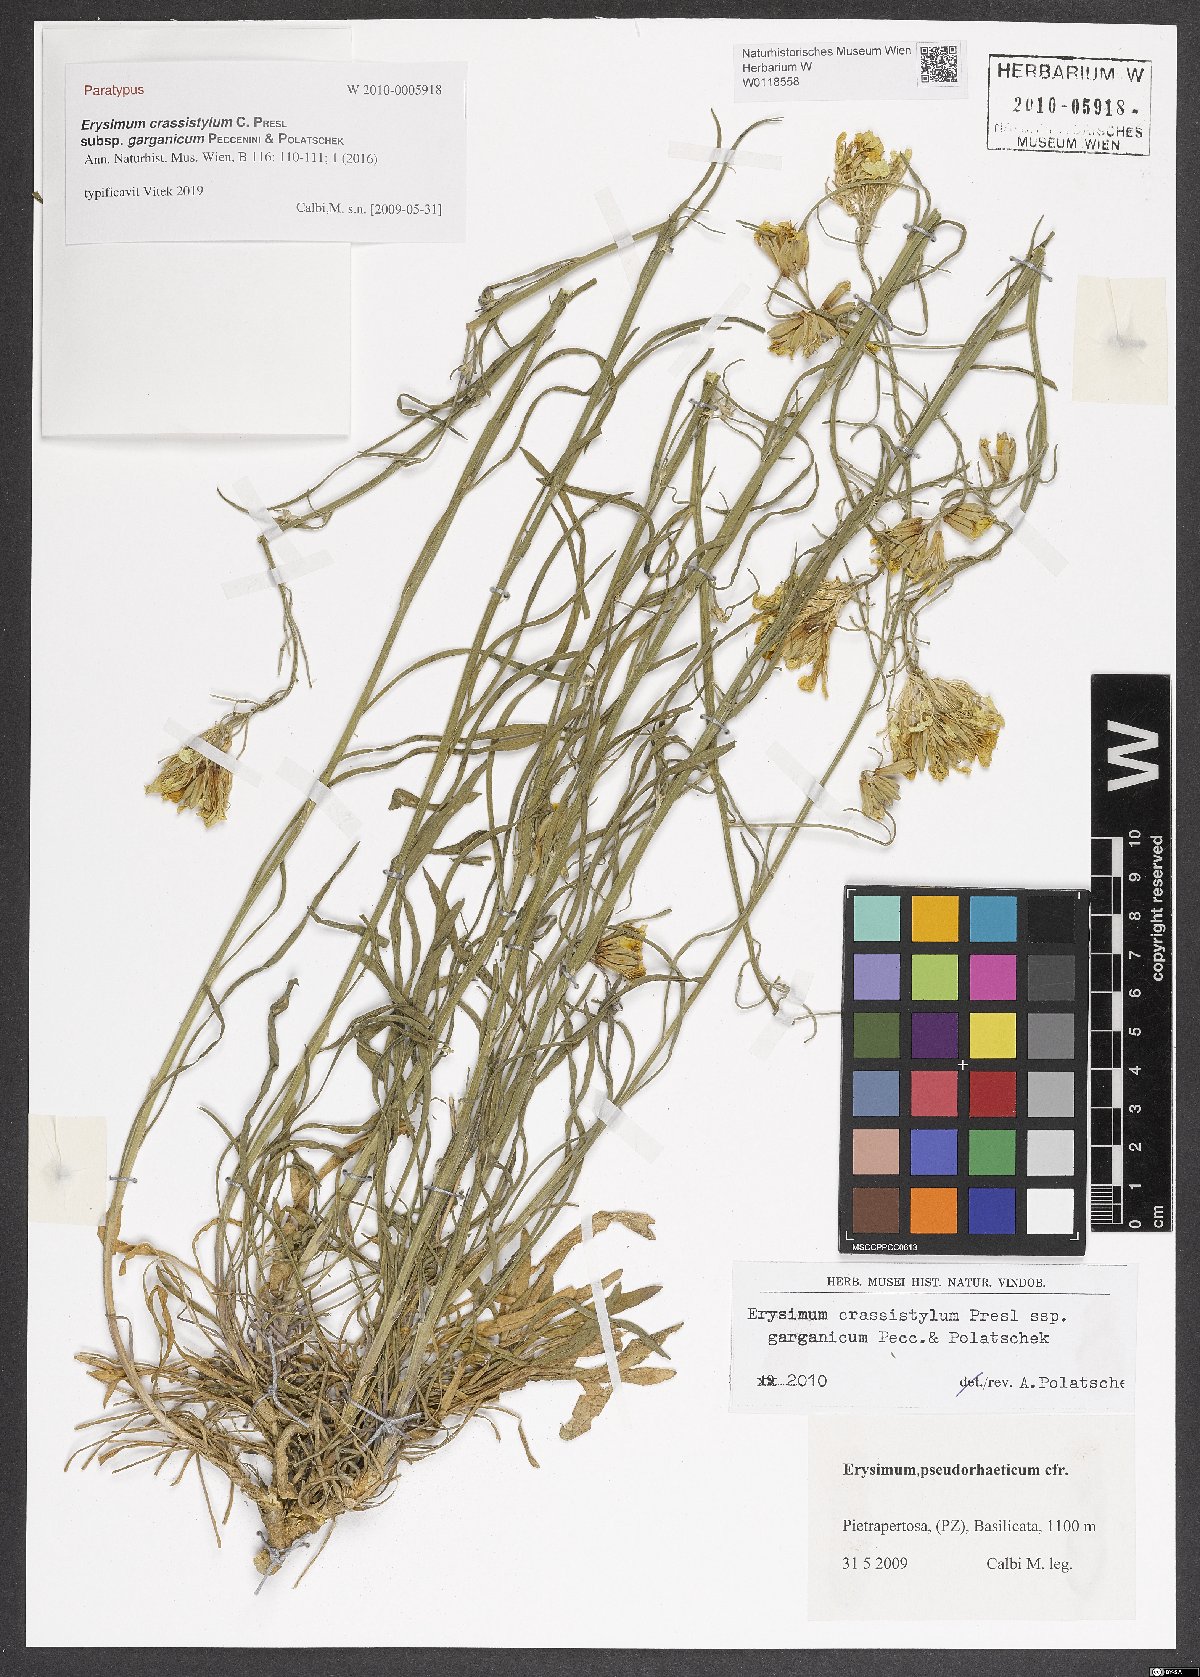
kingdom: Plantae
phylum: Tracheophyta
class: Magnoliopsida
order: Brassicales
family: Brassicaceae
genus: Erysimum
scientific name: Erysimum crassistylum
